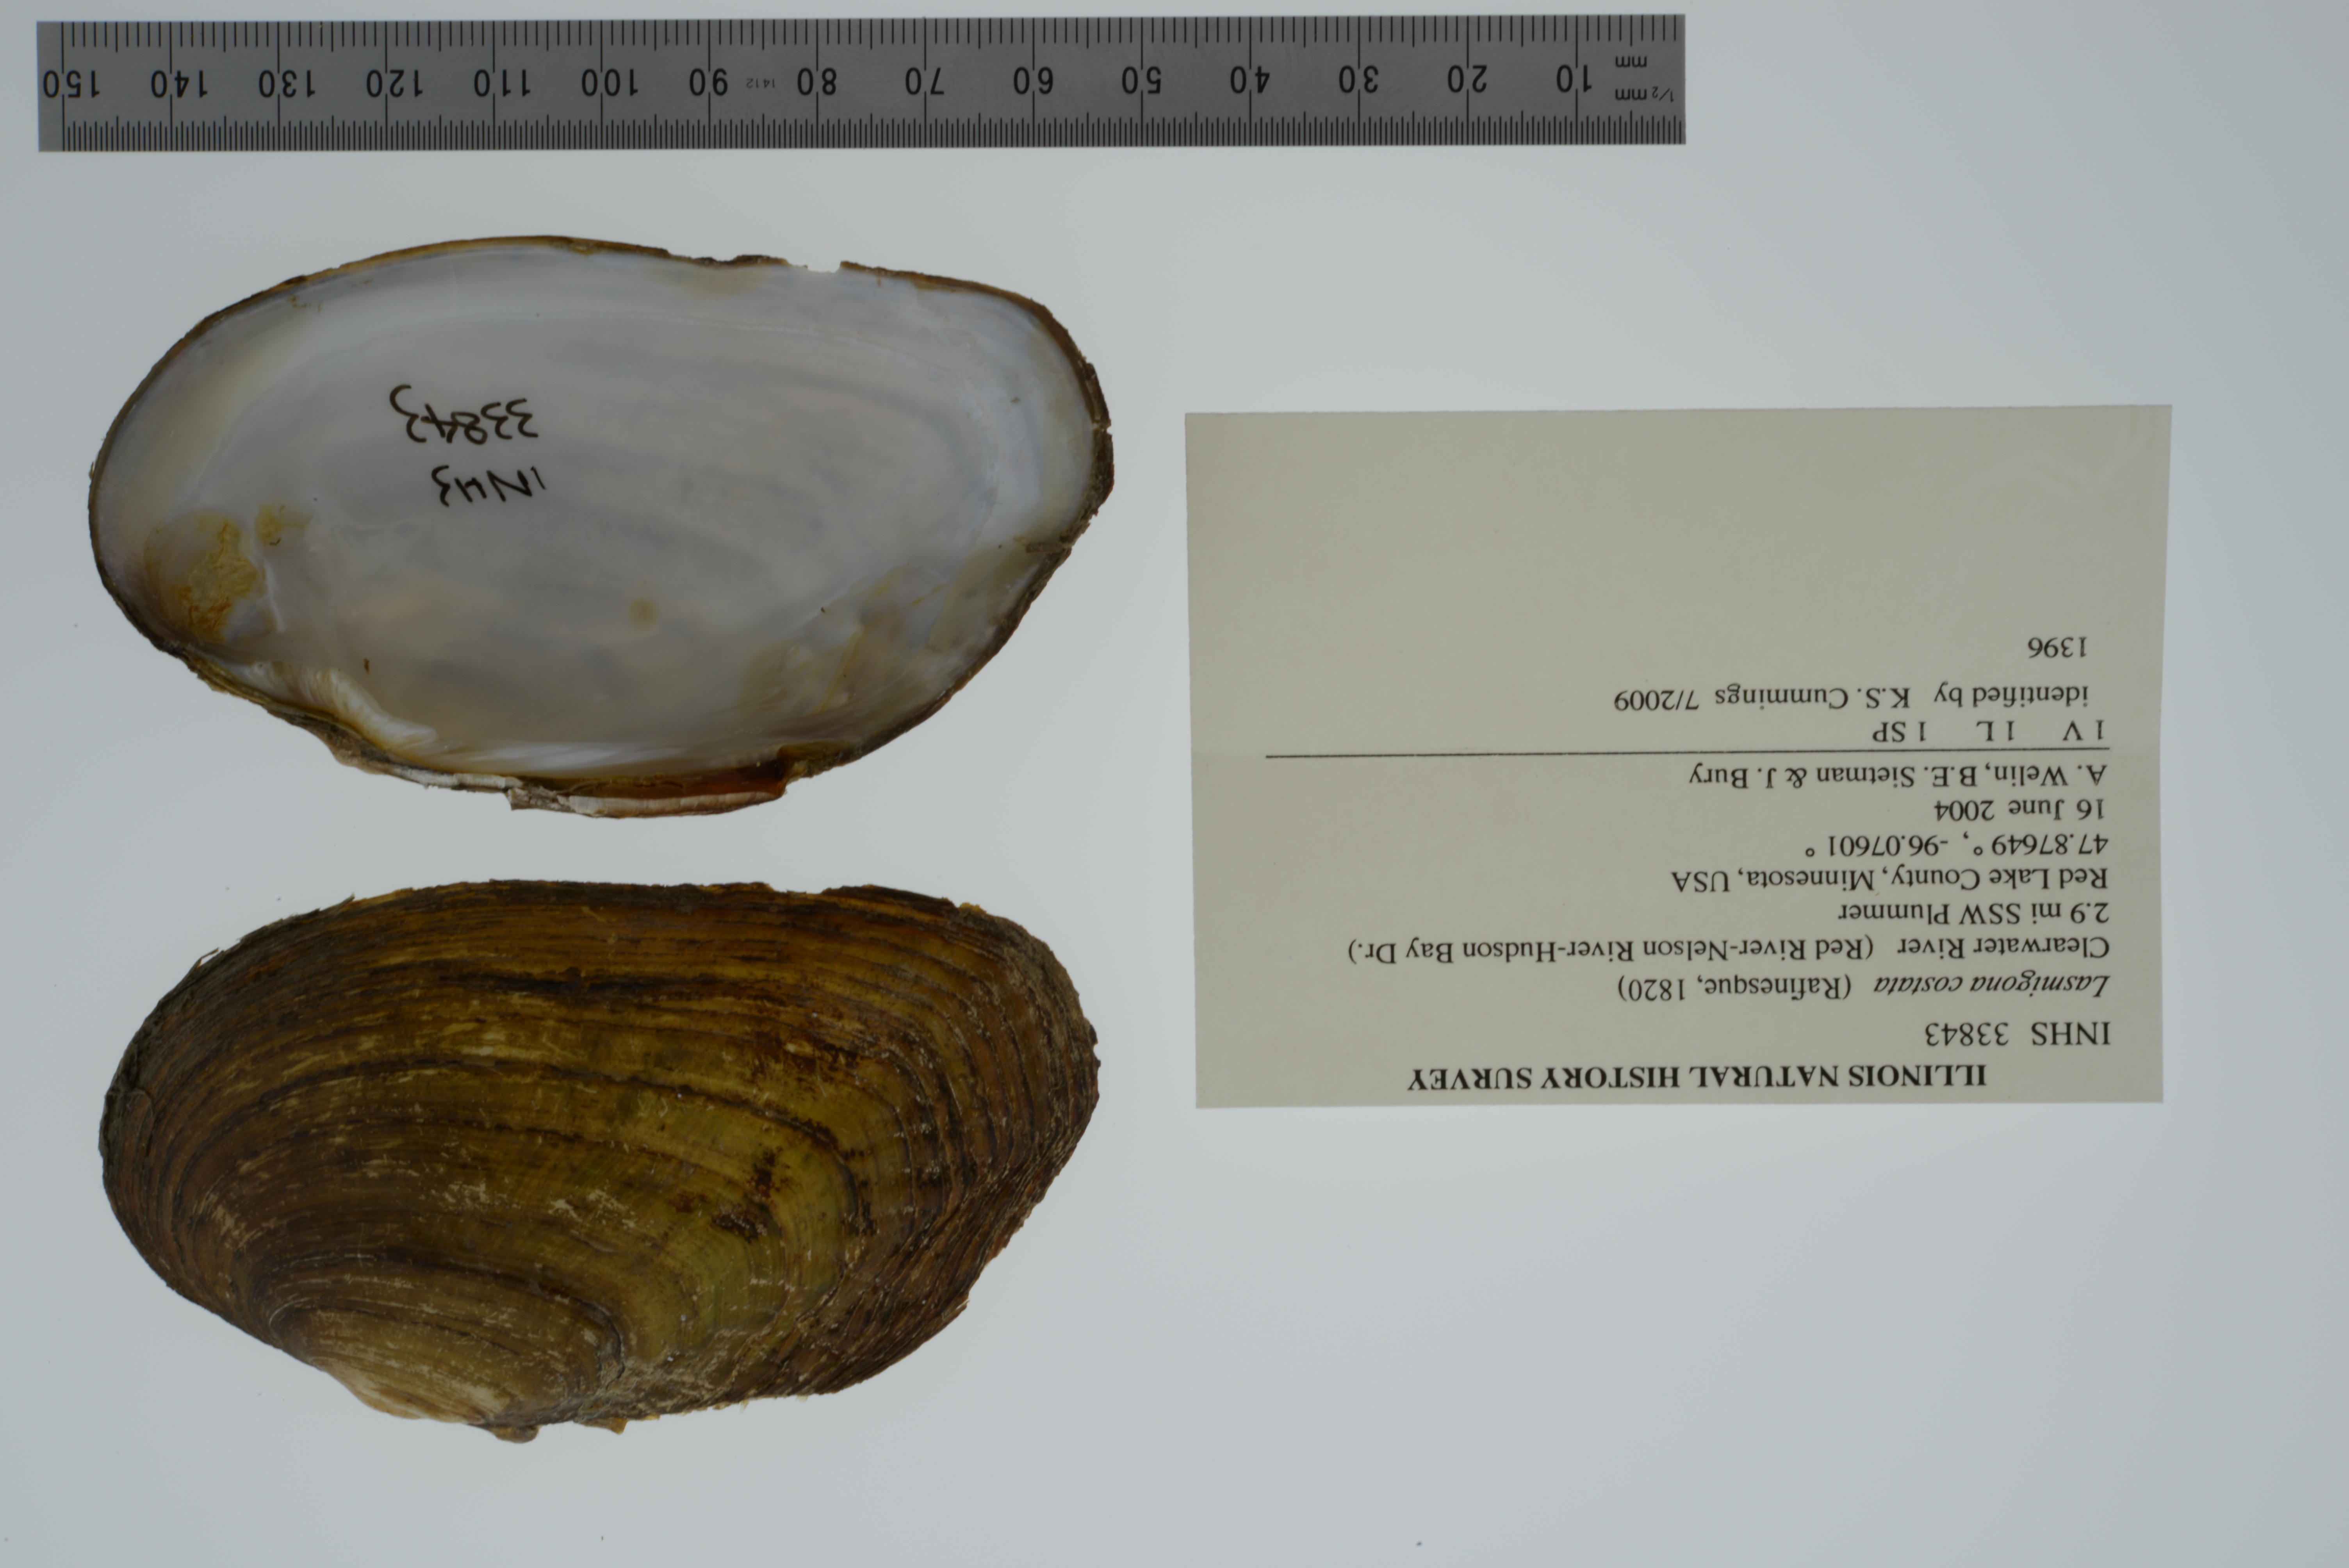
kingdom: Animalia
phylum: Mollusca
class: Bivalvia
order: Unionida
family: Unionidae
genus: Lasmigona
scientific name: Lasmigona costata
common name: Flutedshell
